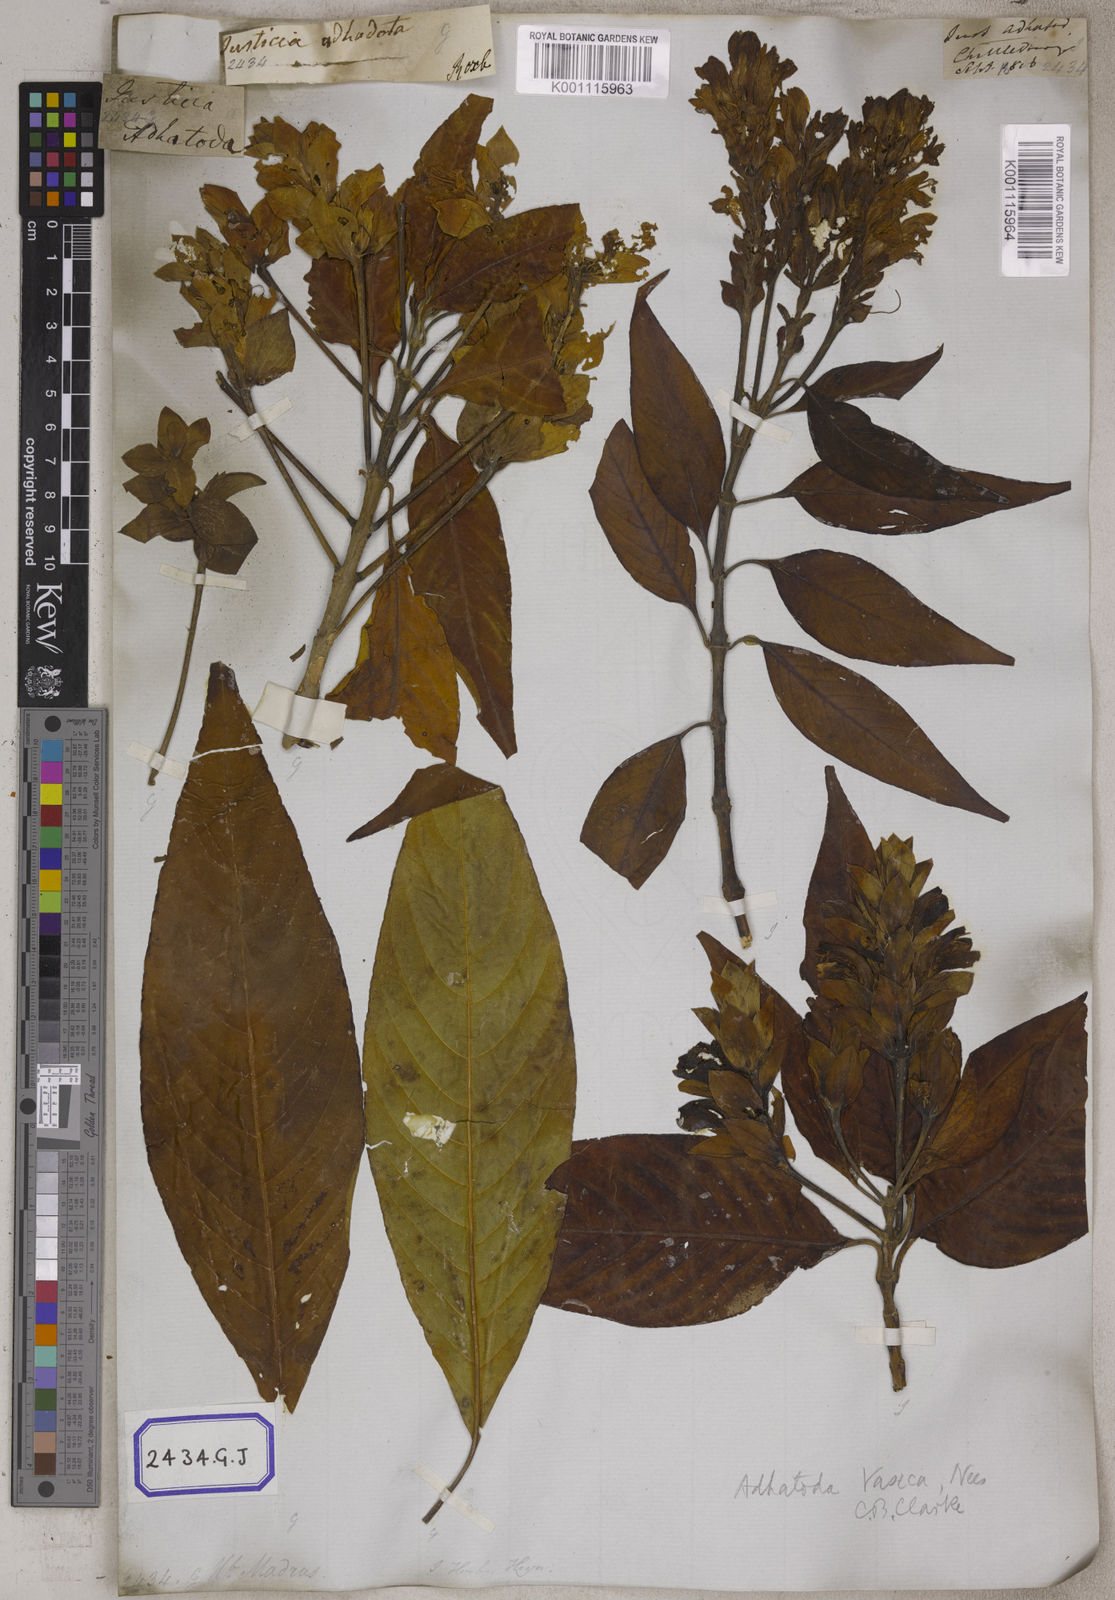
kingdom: Plantae
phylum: Tracheophyta
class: Magnoliopsida
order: Lamiales
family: Acanthaceae
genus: Justicia
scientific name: Justicia adhatoda
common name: Malabar nut
